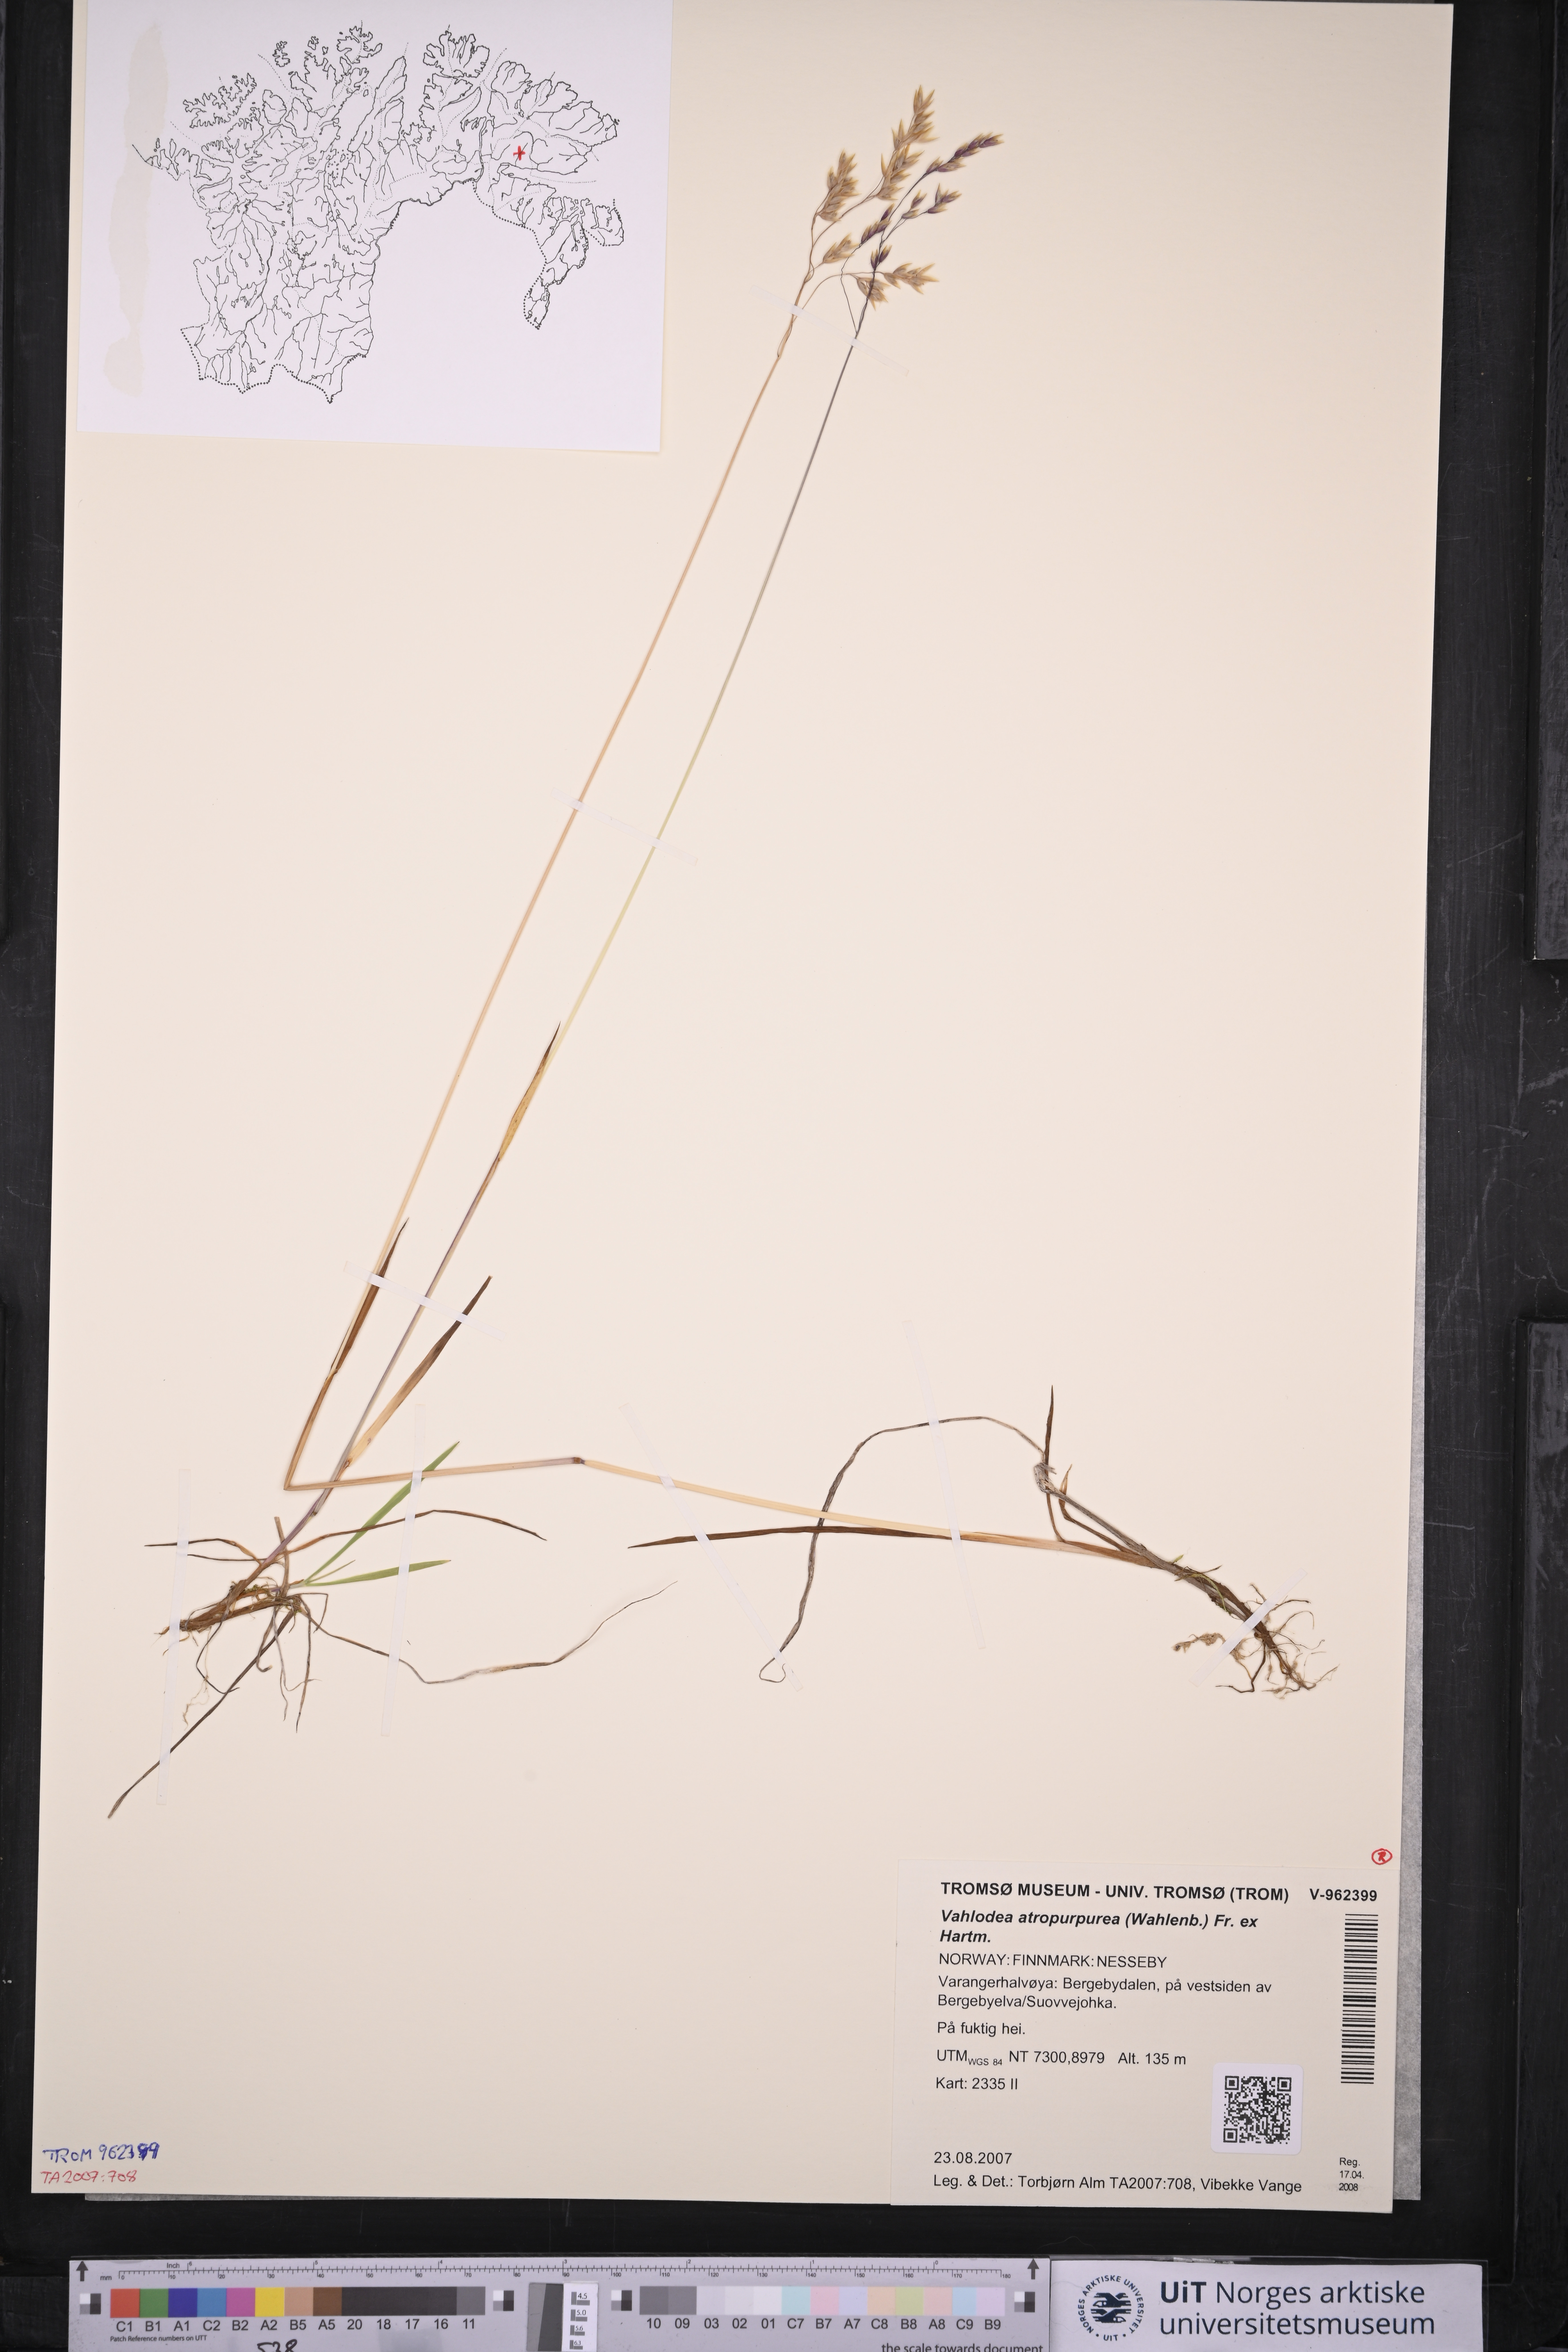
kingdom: Plantae
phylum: Tracheophyta
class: Liliopsida
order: Poales
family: Poaceae
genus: Vahlodea
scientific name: Vahlodea atropurpurea
